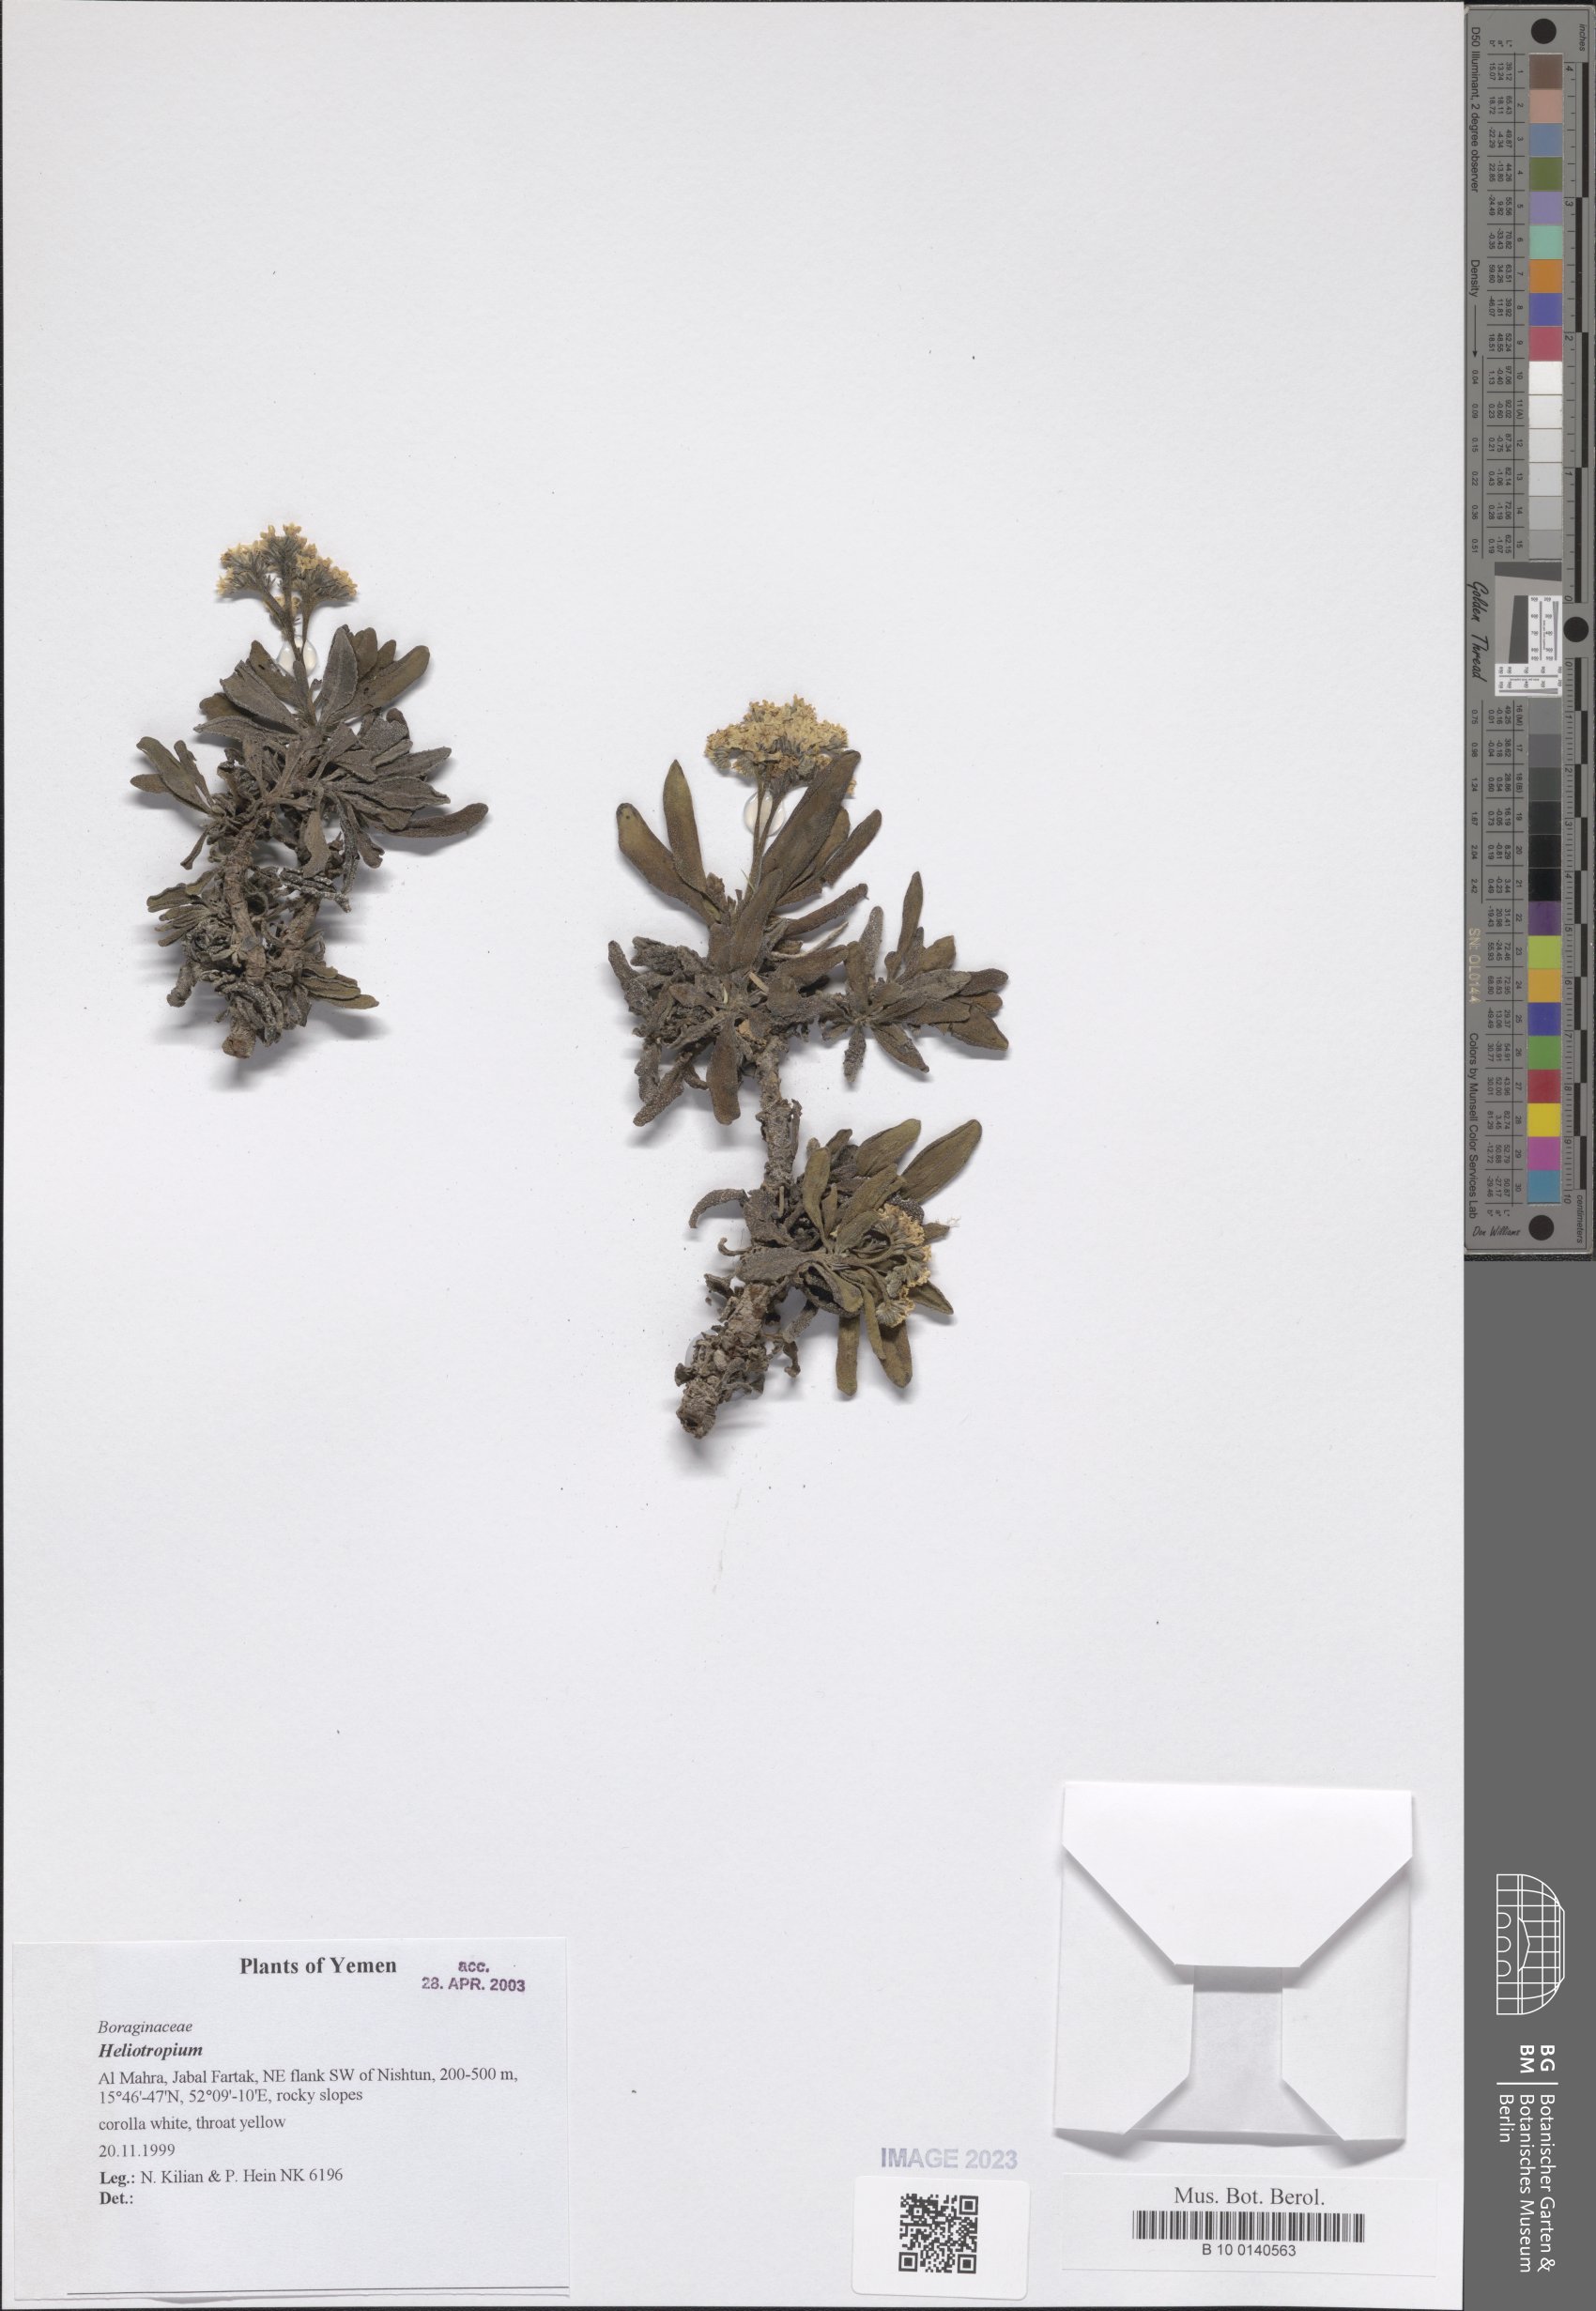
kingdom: Plantae
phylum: Tracheophyta
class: Magnoliopsida
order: Boraginales
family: Heliotropiaceae
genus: Heliotropium
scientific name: Heliotropium
